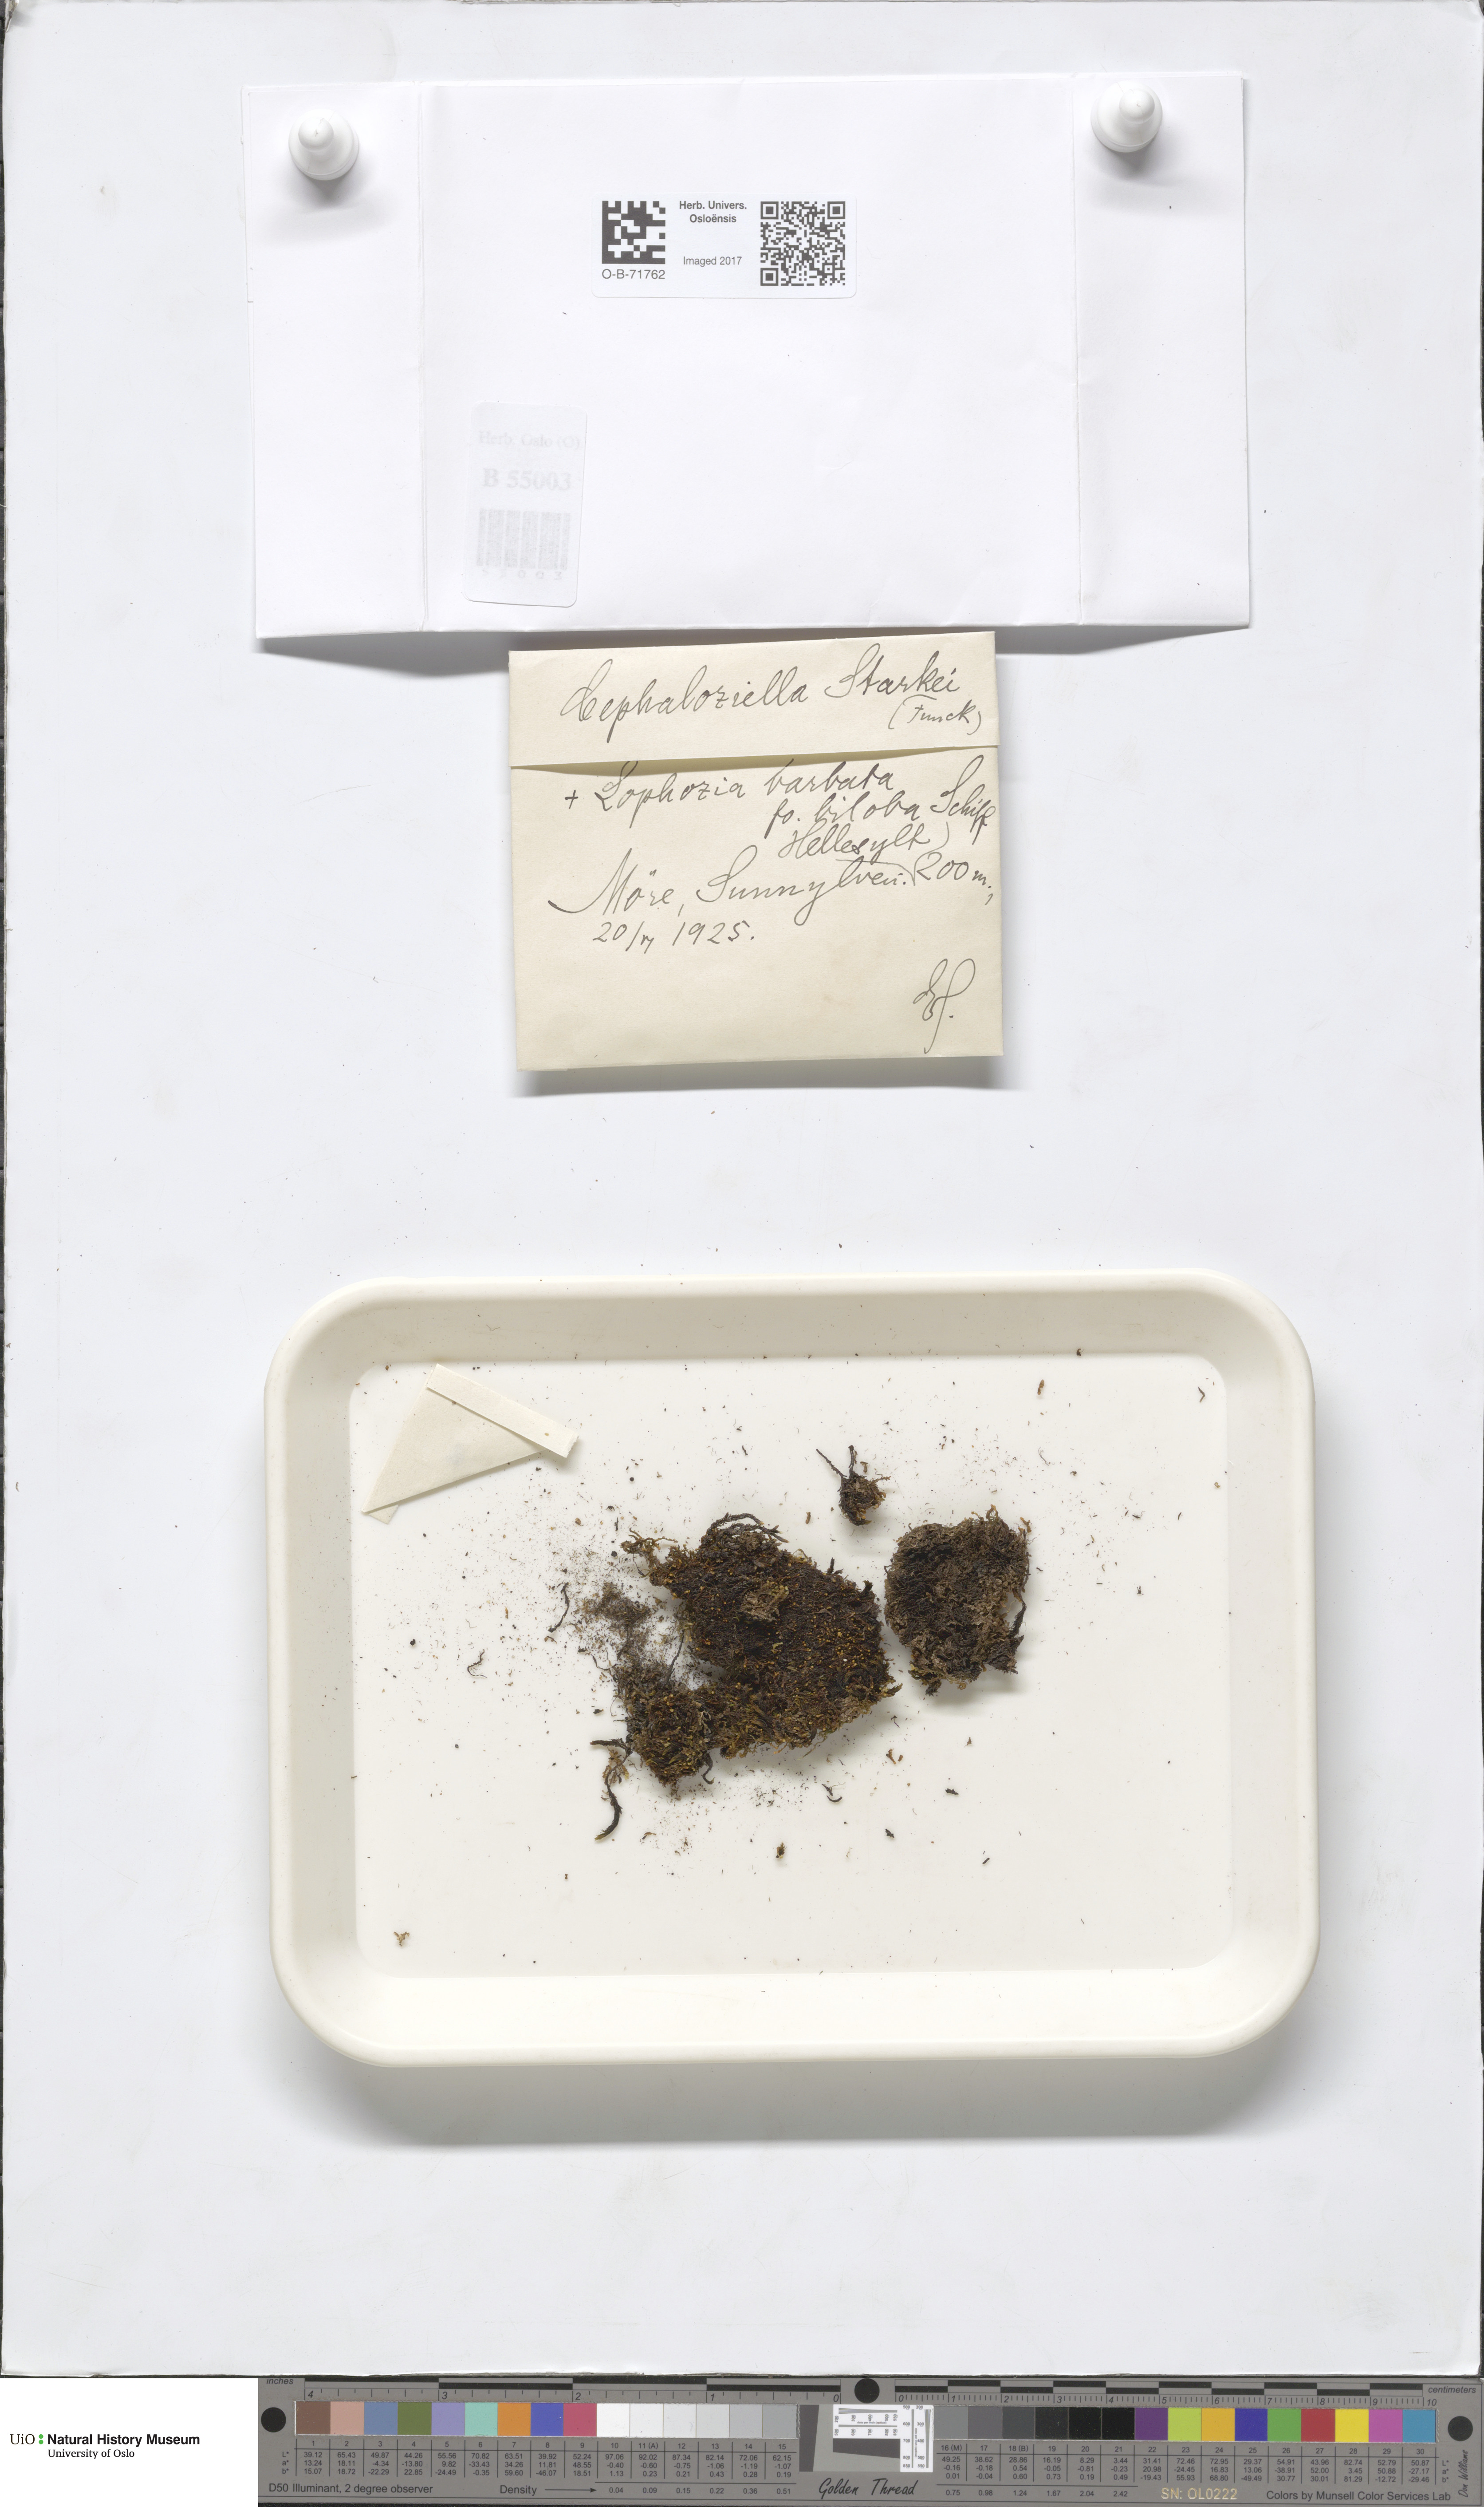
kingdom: Plantae
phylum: Marchantiophyta
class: Jungermanniopsida
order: Jungermanniales
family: Cephaloziellaceae
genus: Cephaloziella
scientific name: Cephaloziella varians
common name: Arctic threadwort
